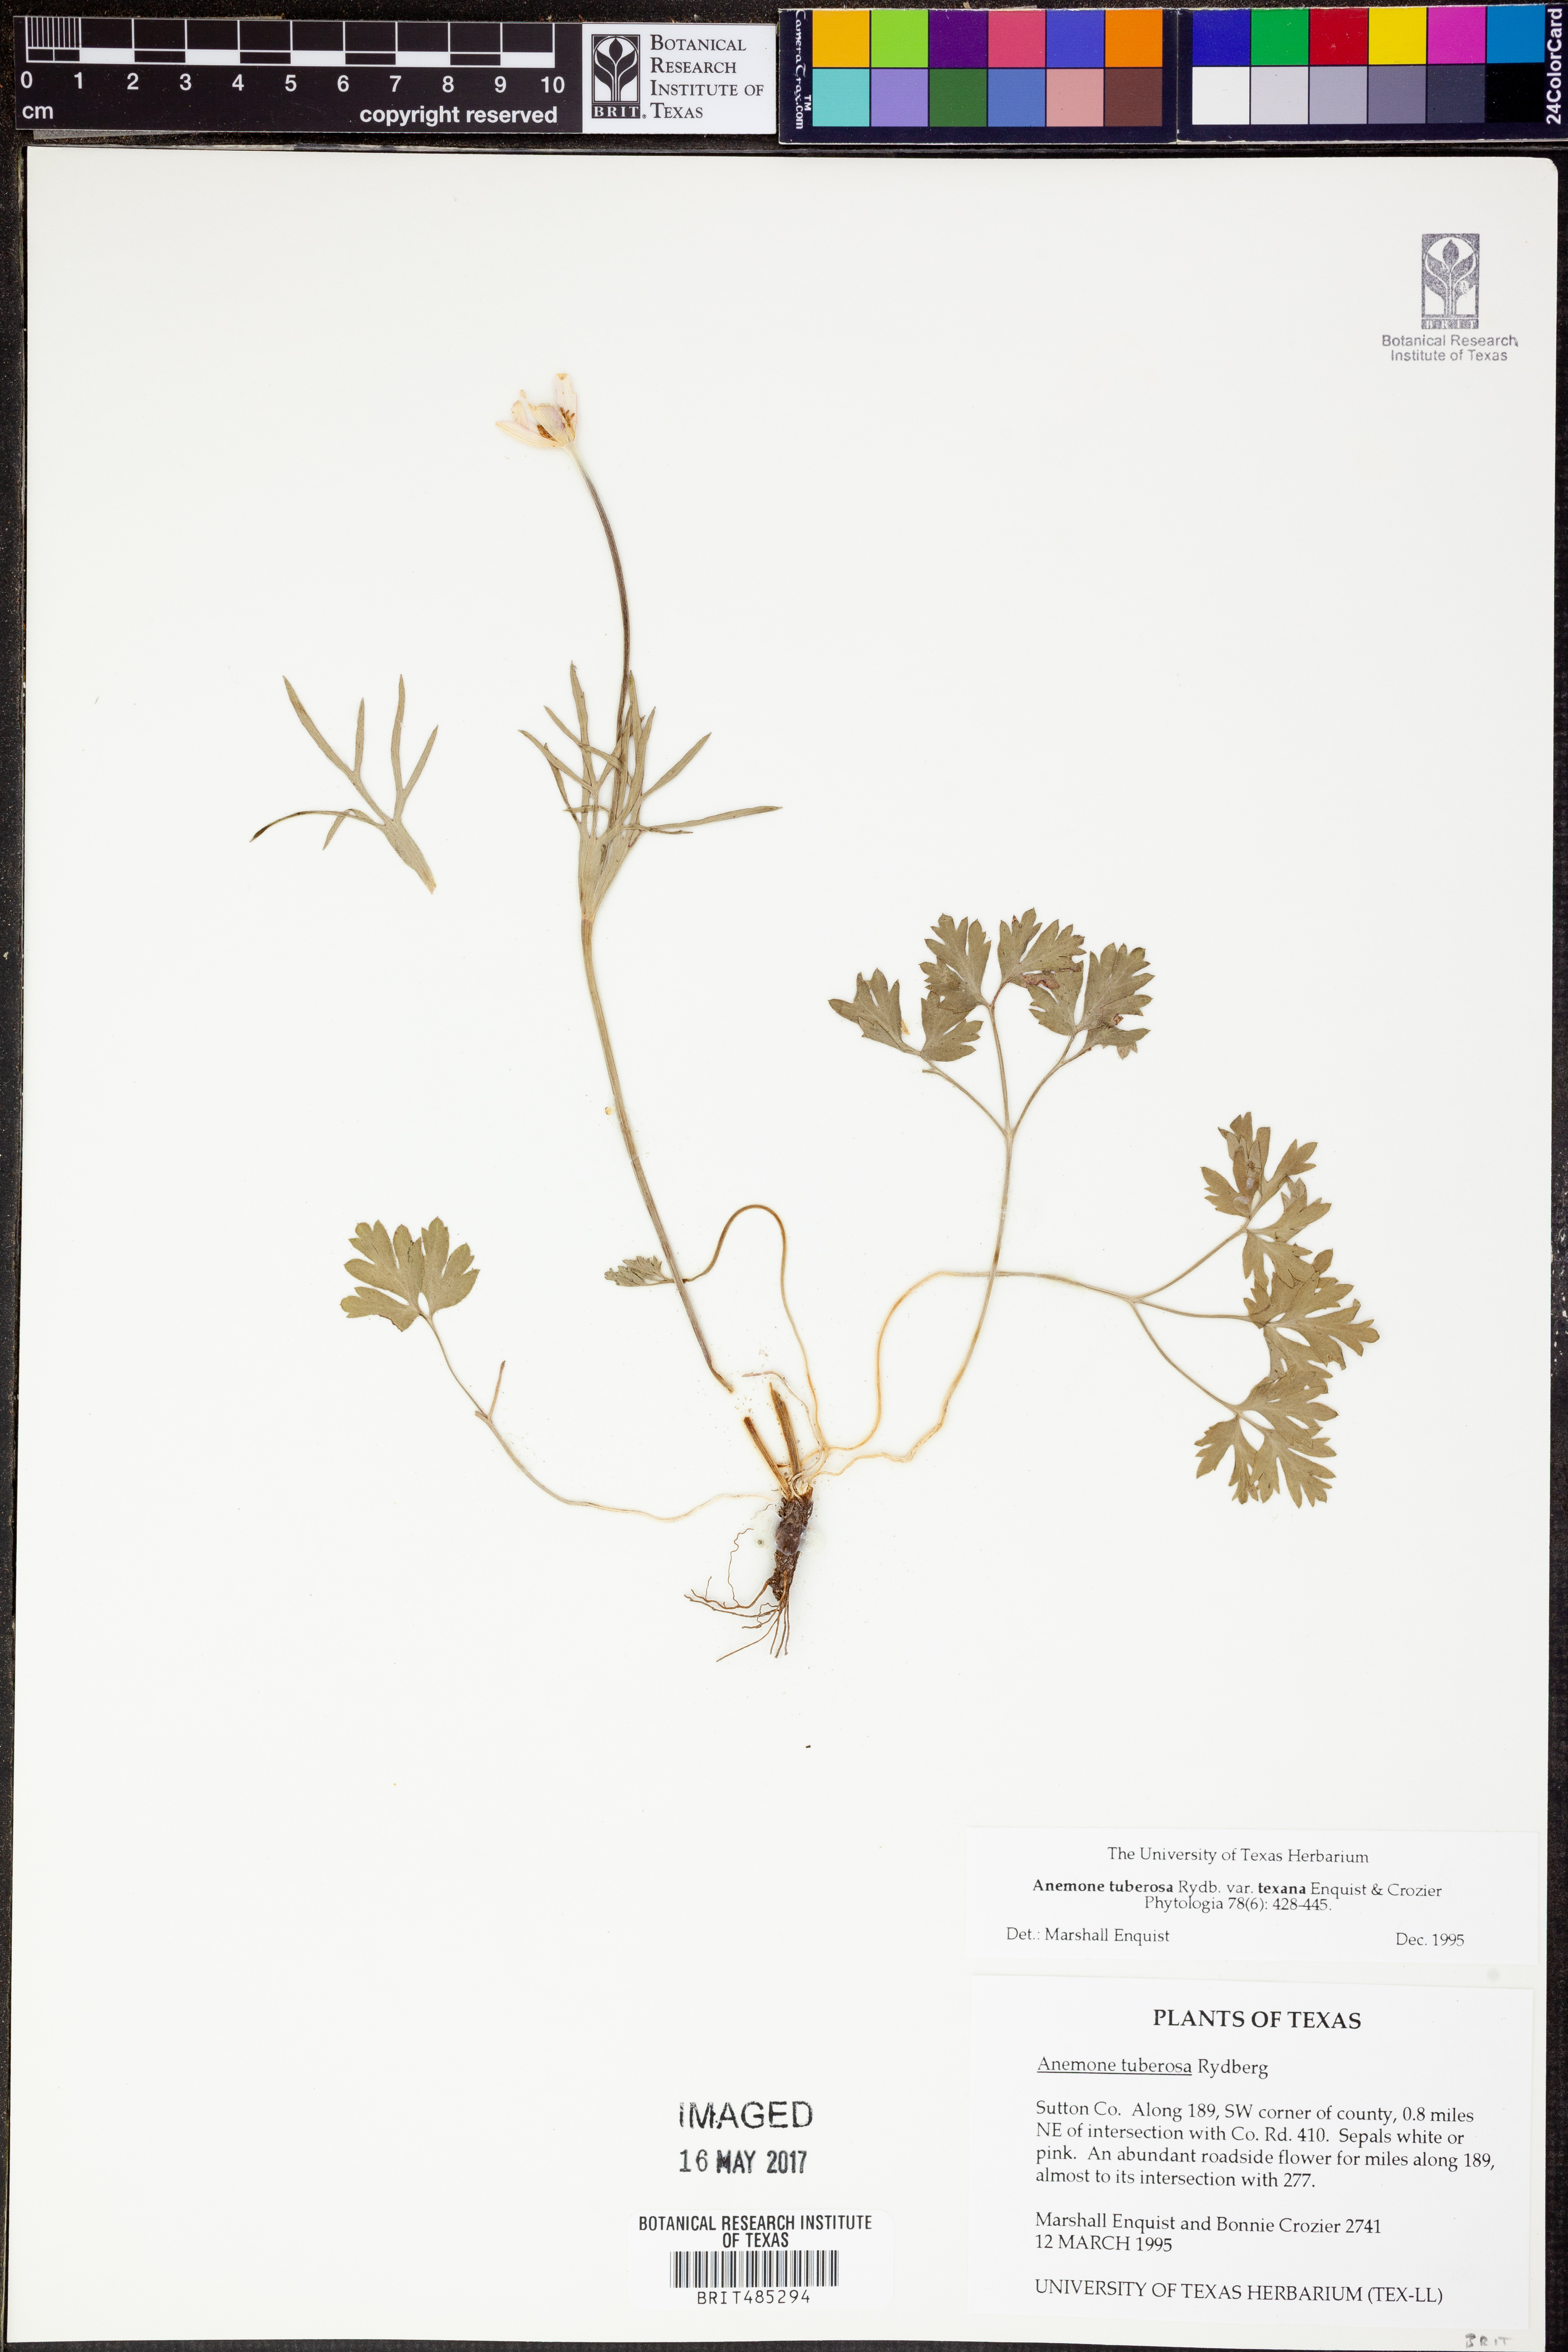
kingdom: Plantae
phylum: Tracheophyta
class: Magnoliopsida
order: Ranunculales
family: Ranunculaceae
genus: Anemone
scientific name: Anemone tuberosa
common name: Desert anemone
